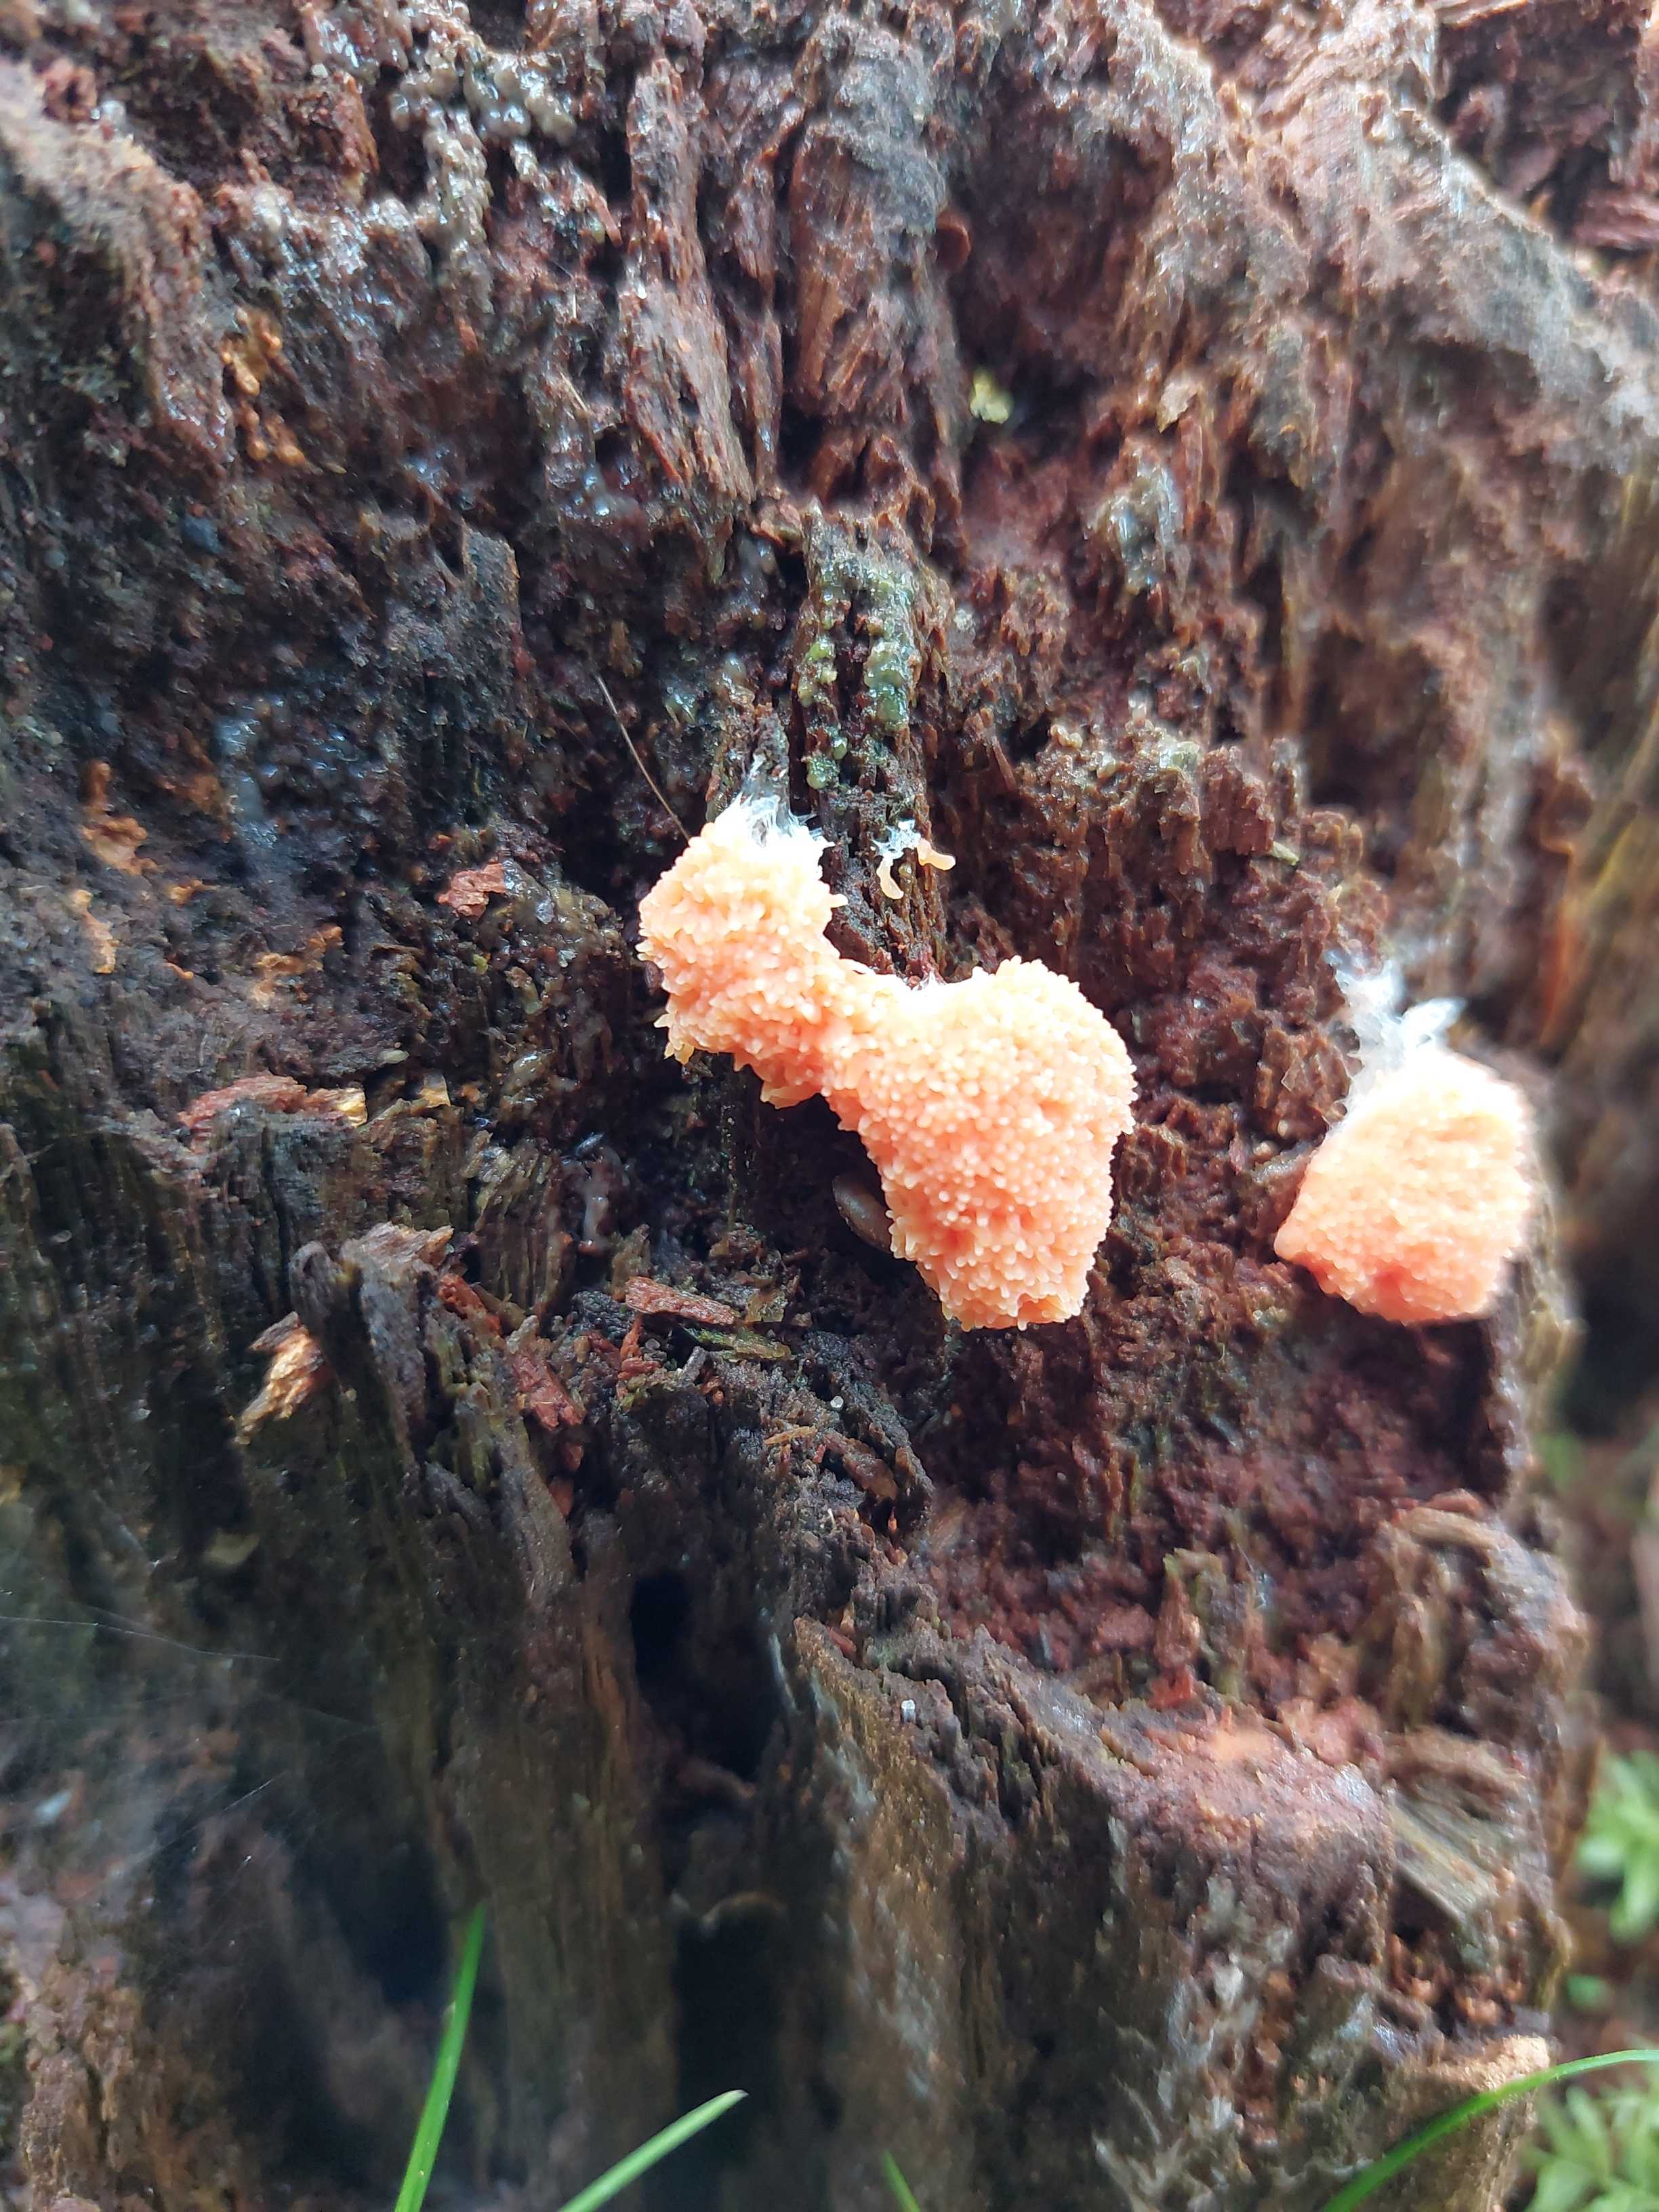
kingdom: Protozoa
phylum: Mycetozoa
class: Myxomycetes
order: Cribrariales
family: Tubiferaceae
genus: Tubifera
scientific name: Tubifera ferruginosa
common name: kanel-støvrør
